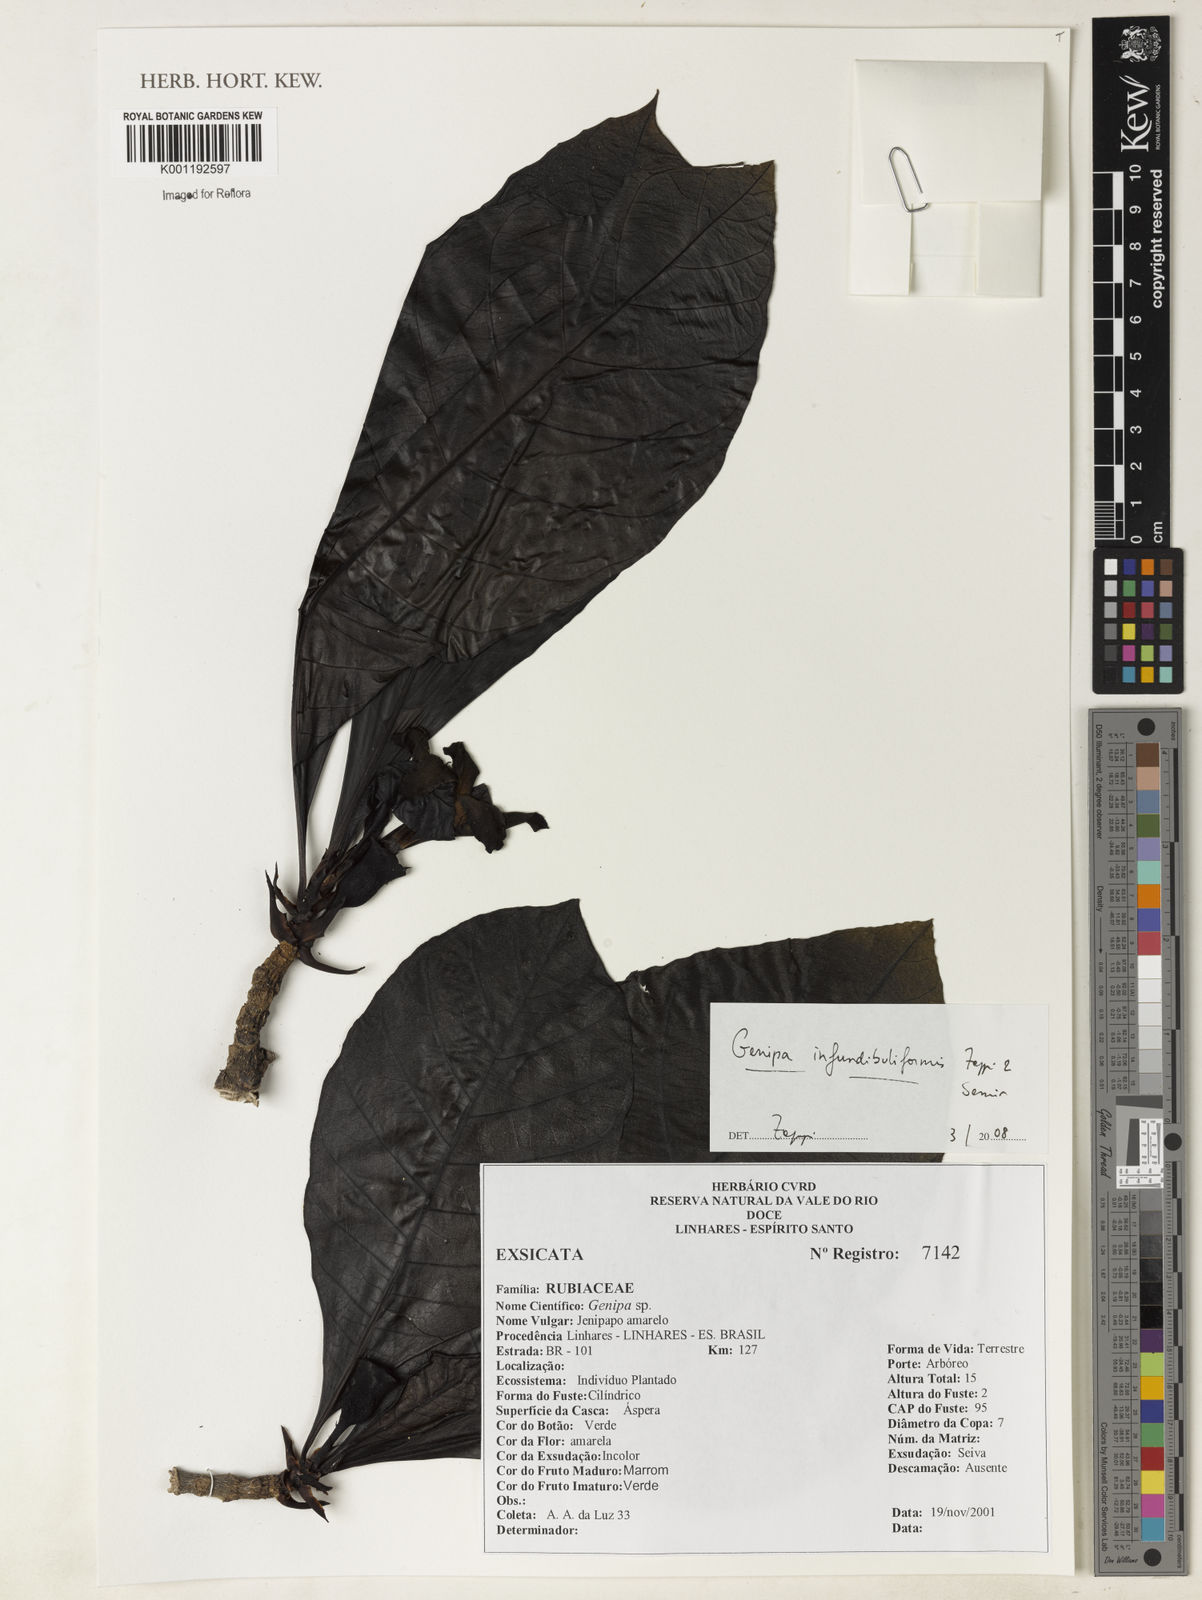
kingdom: Plantae
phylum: Tracheophyta
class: Magnoliopsida
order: Gentianales
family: Rubiaceae
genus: Genipa
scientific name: Genipa infundibuliformis
